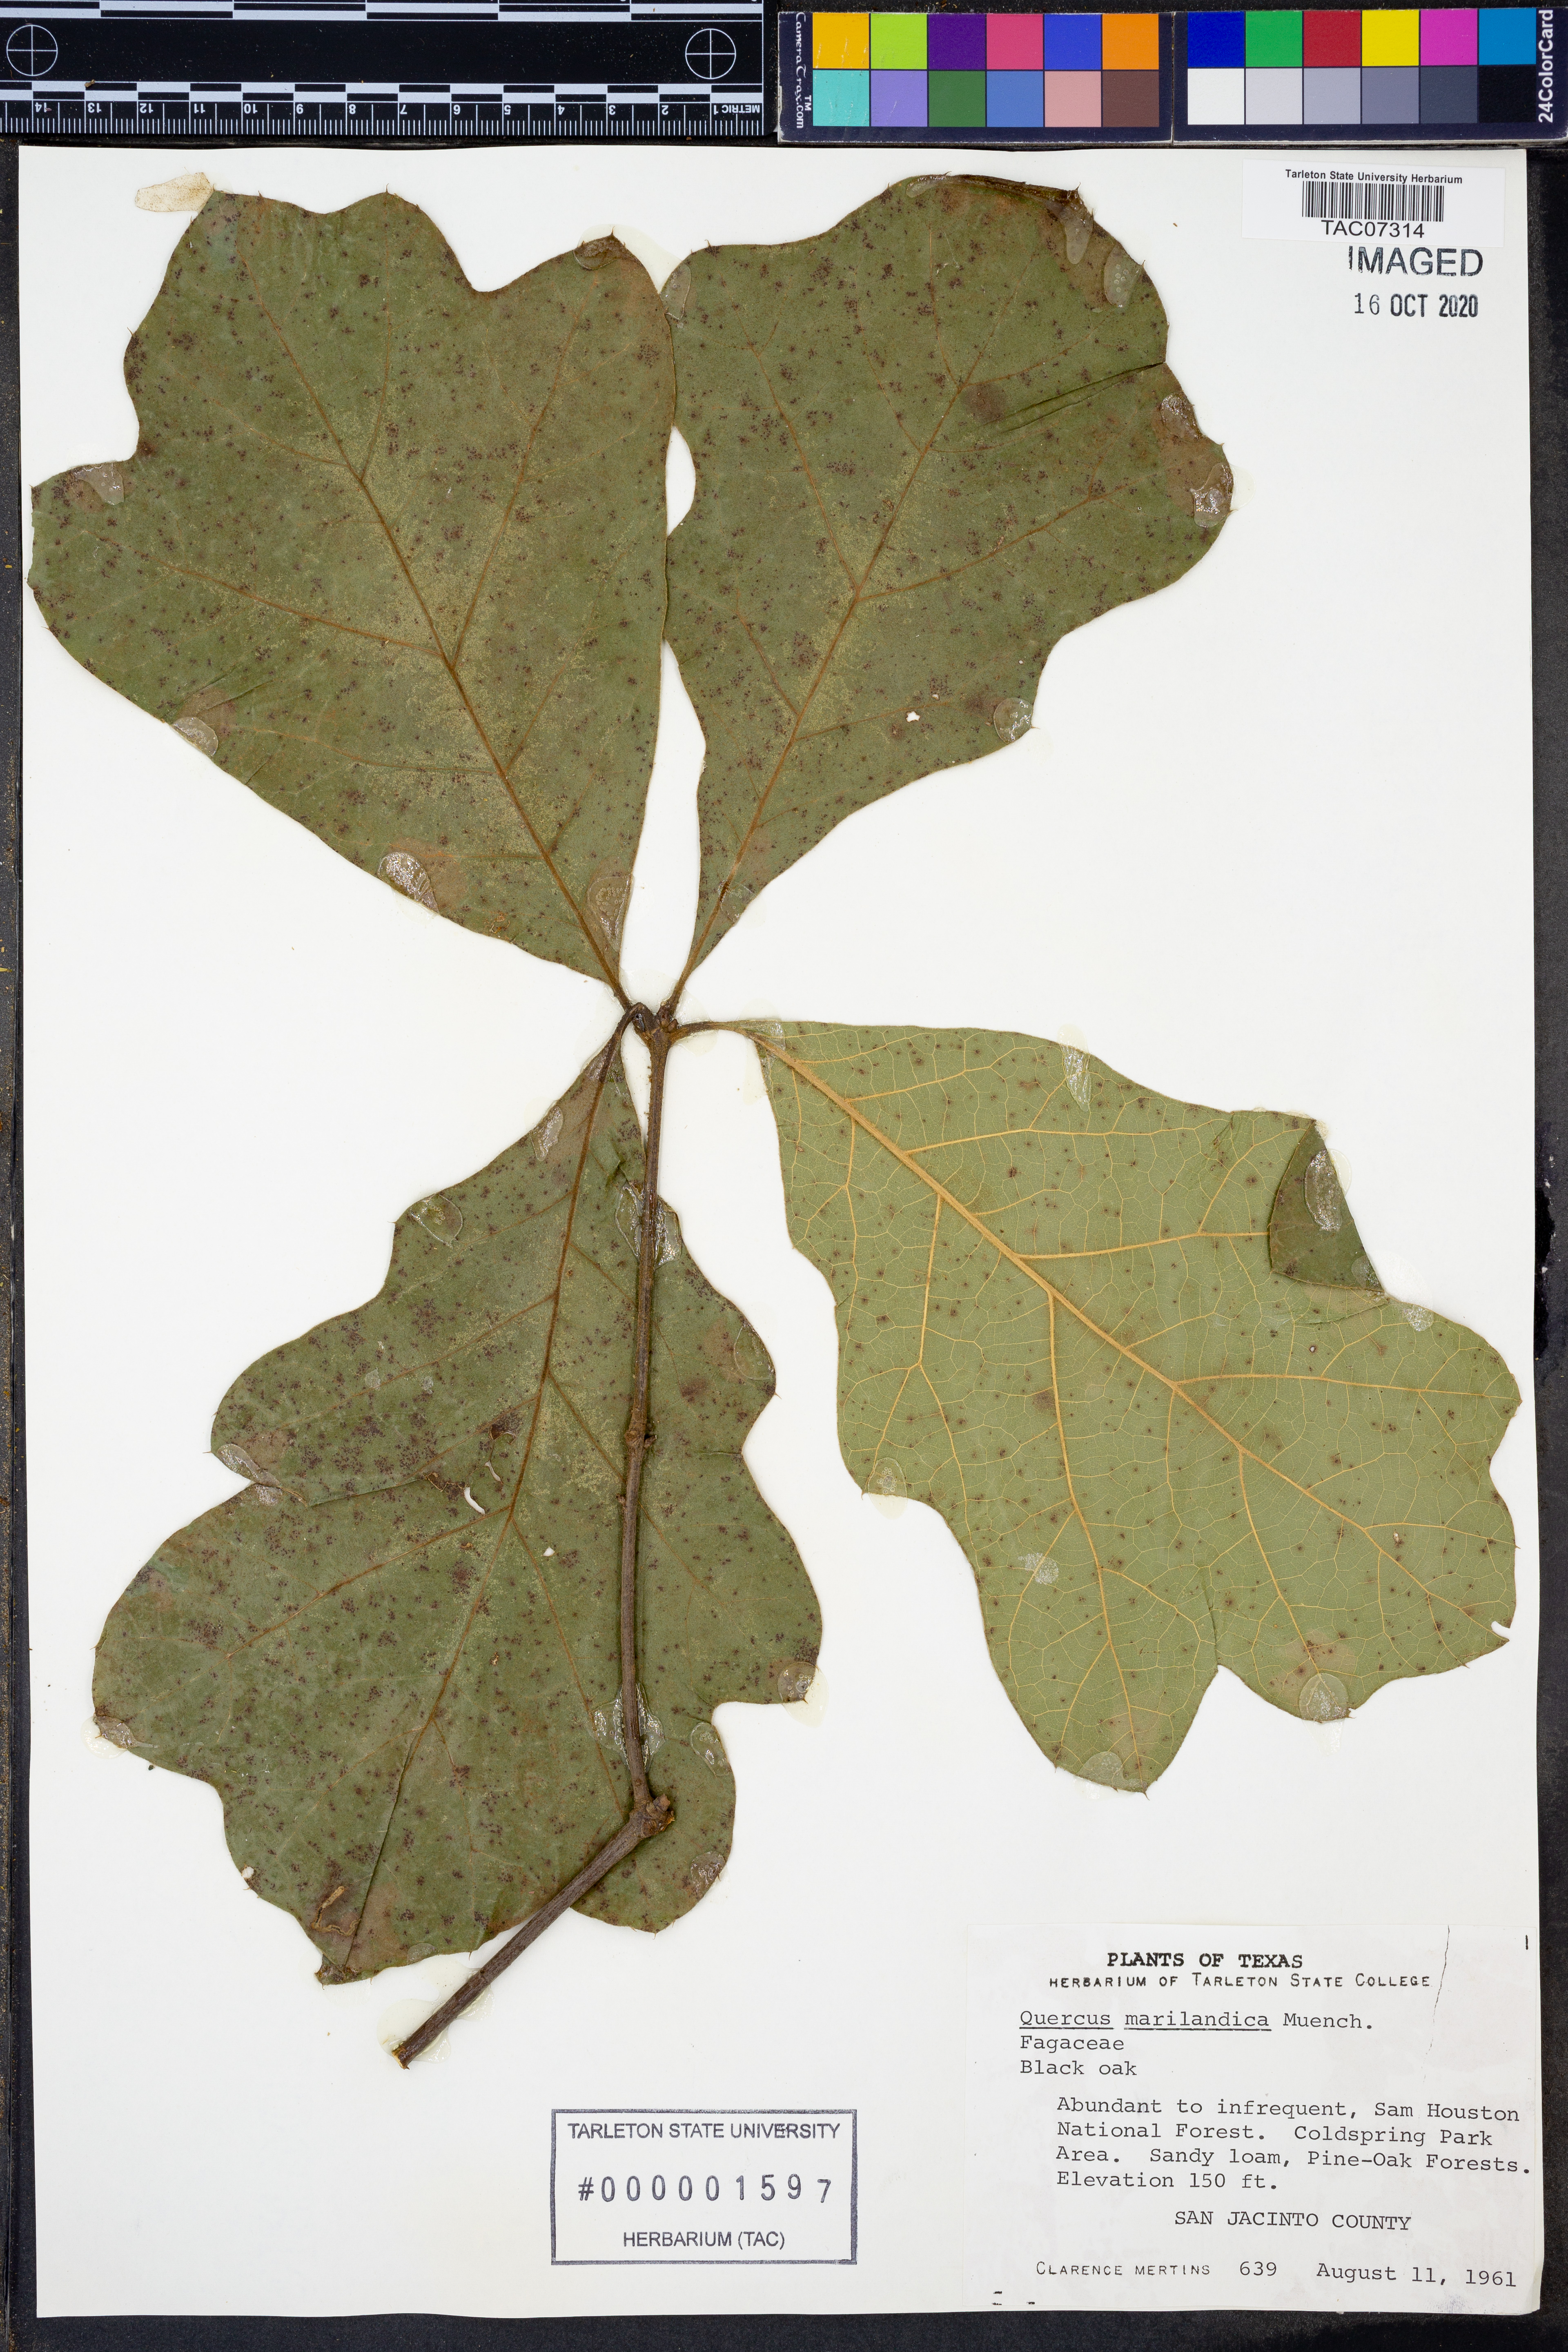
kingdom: Plantae
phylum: Tracheophyta
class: Magnoliopsida
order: Fagales
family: Fagaceae
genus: Quercus
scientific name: Quercus marilandica
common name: Blackjack oak
